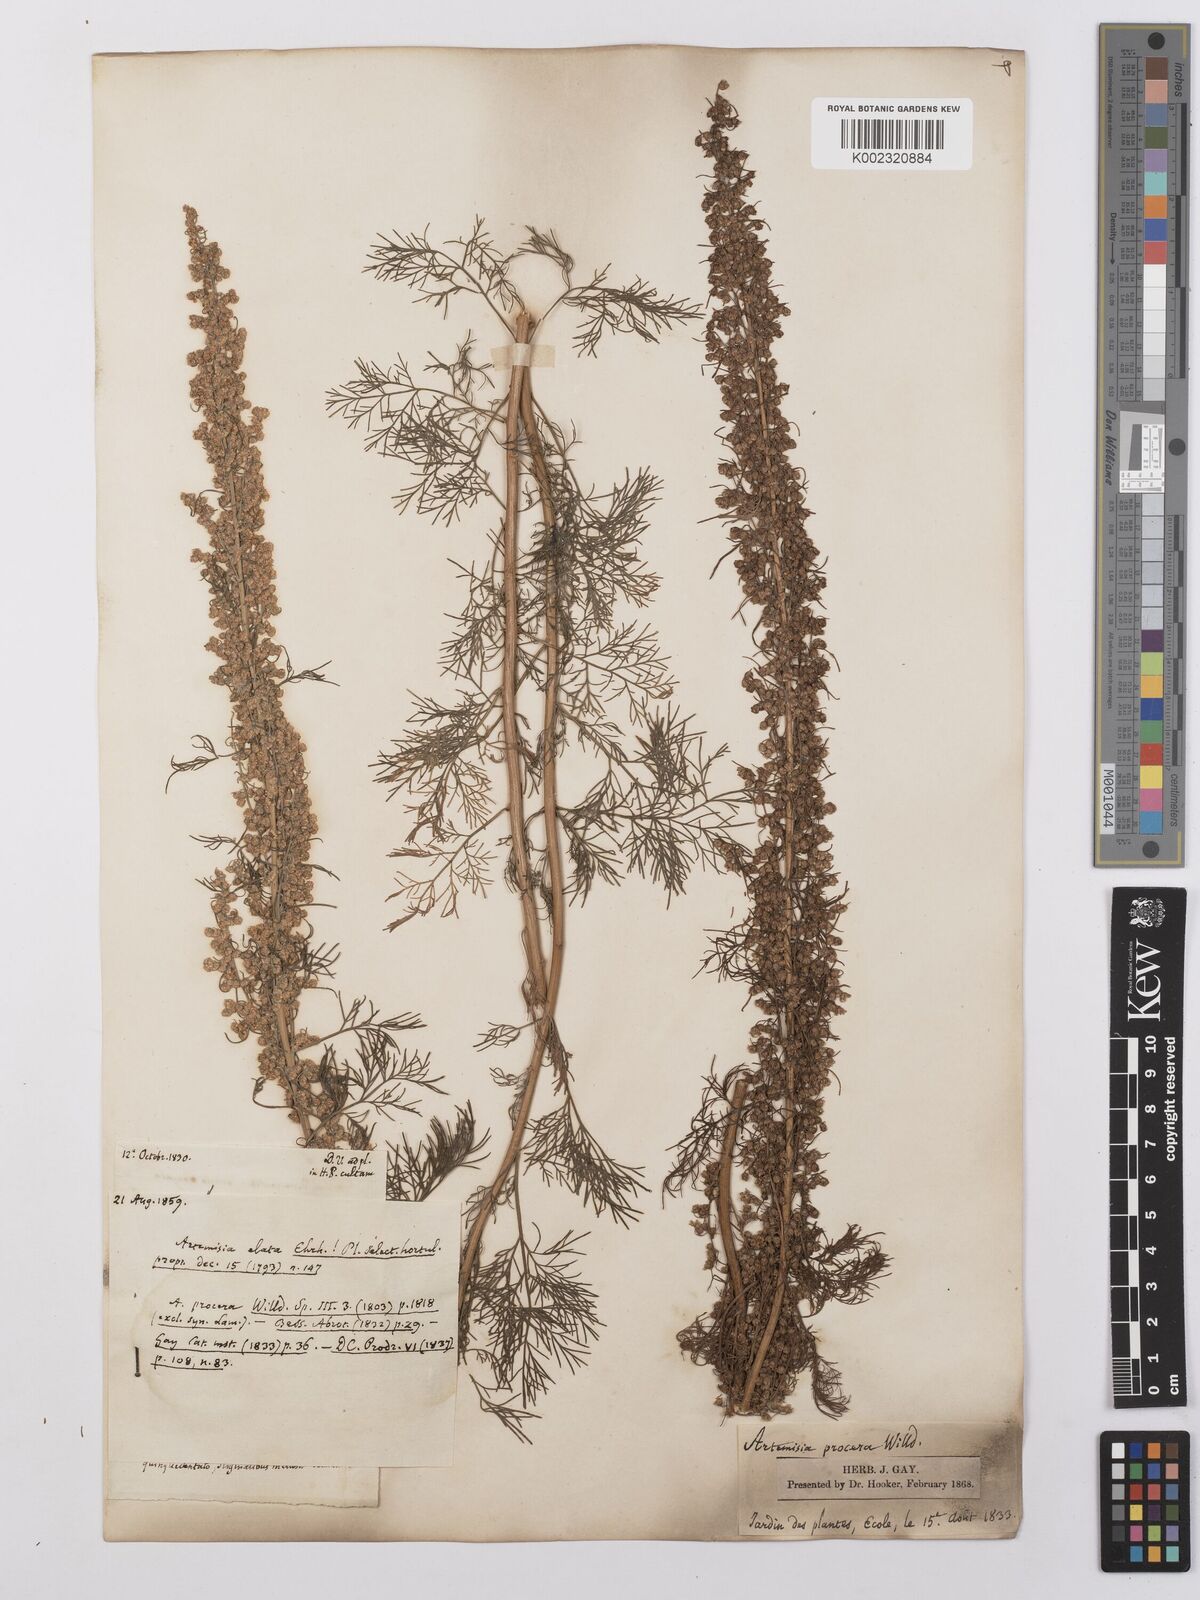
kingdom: Plantae
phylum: Tracheophyta
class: Magnoliopsida
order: Asterales
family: Asteraceae
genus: Artemisia
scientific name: Artemisia abrotanum
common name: Southernwood
